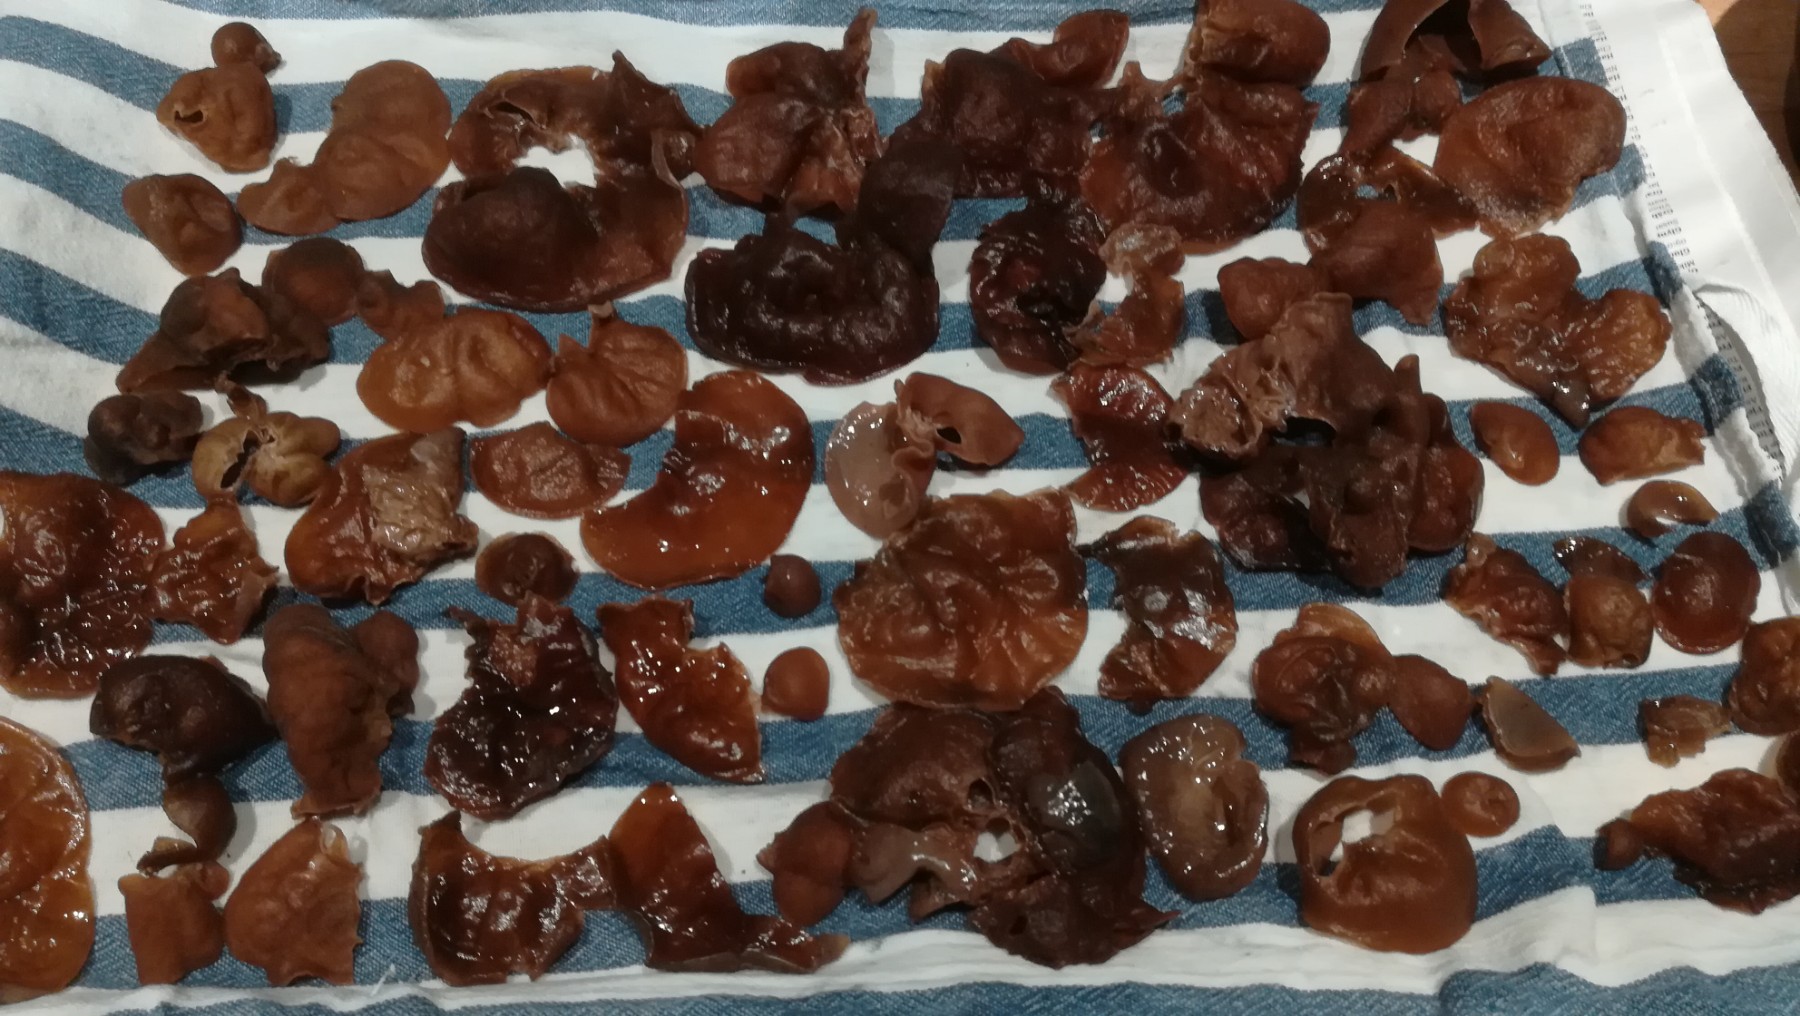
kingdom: Fungi
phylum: Basidiomycota
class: Agaricomycetes
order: Auriculariales
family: Auriculariaceae
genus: Auricularia
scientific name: Auricularia auricula-judae
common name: almindelig judasøre
